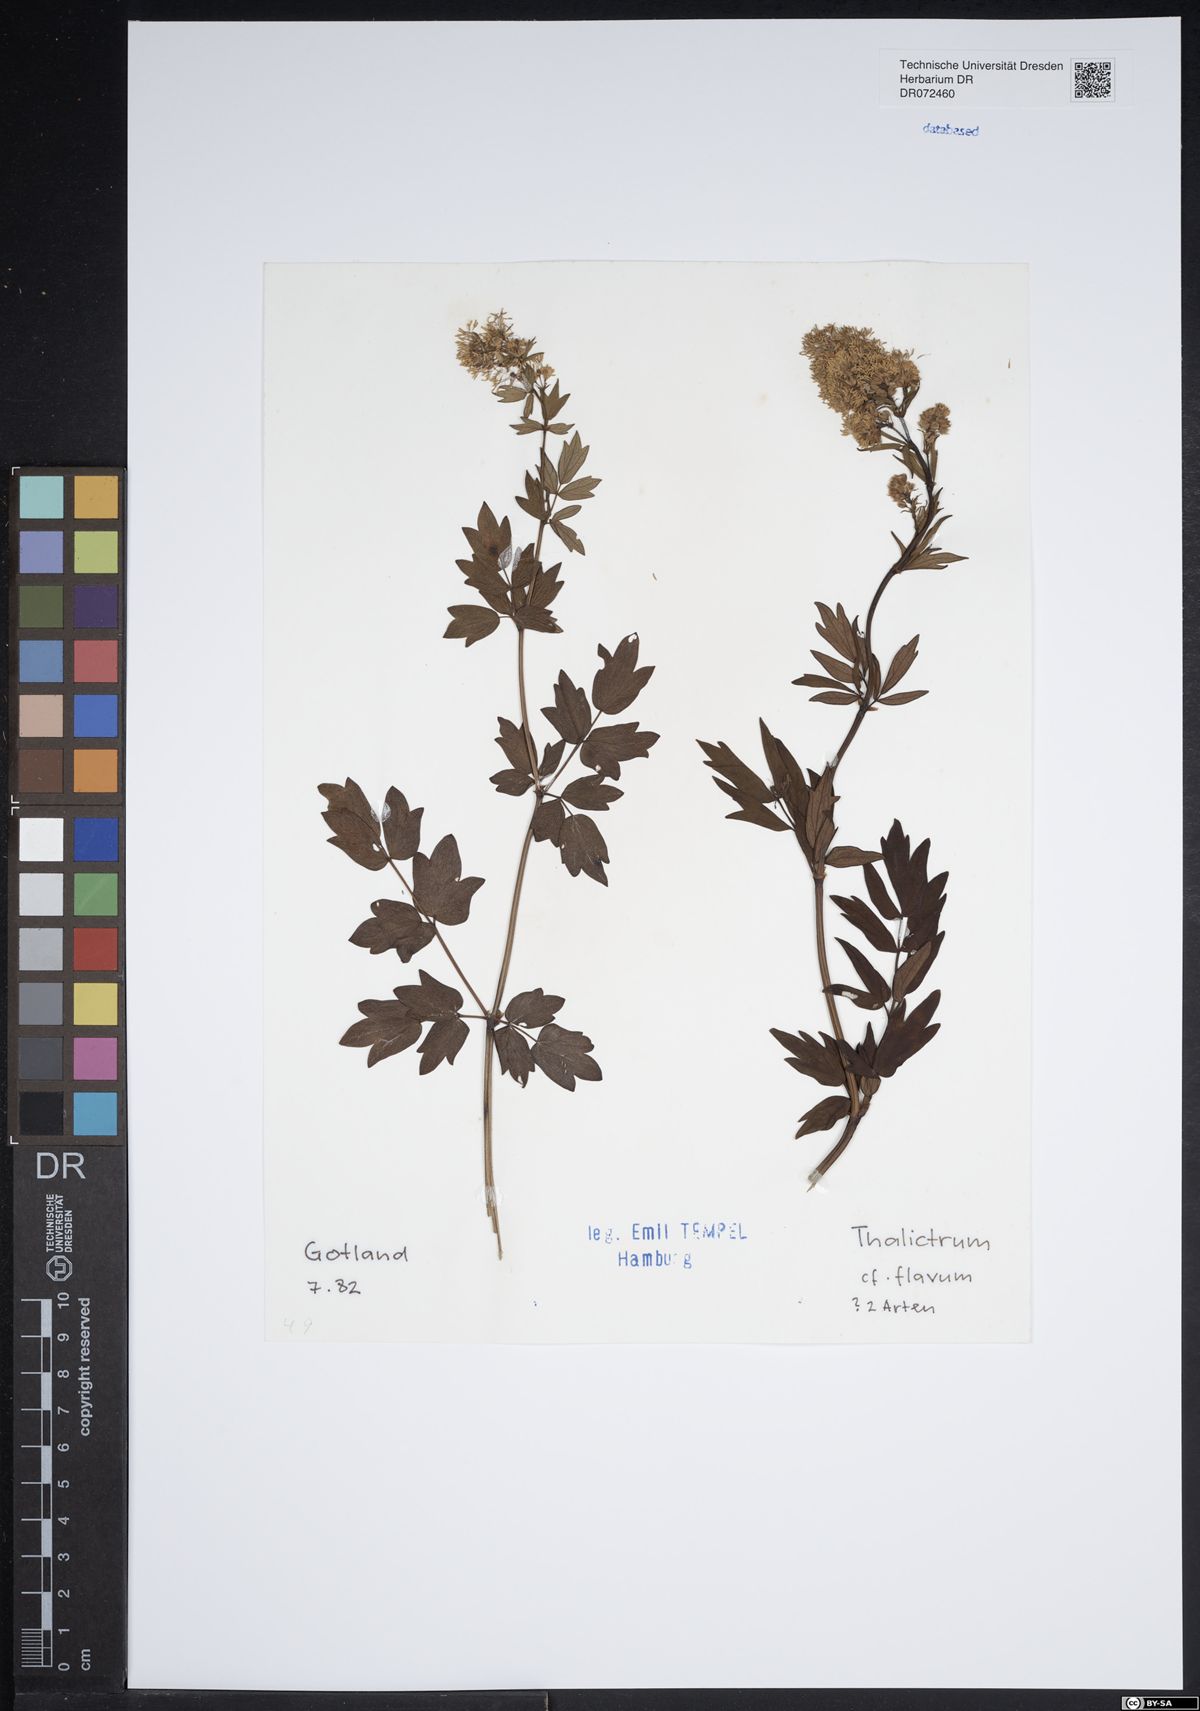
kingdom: Plantae
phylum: Tracheophyta
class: Magnoliopsida
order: Ranunculales
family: Ranunculaceae
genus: Thalictrum
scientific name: Thalictrum flavum
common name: Common meadow-rue
